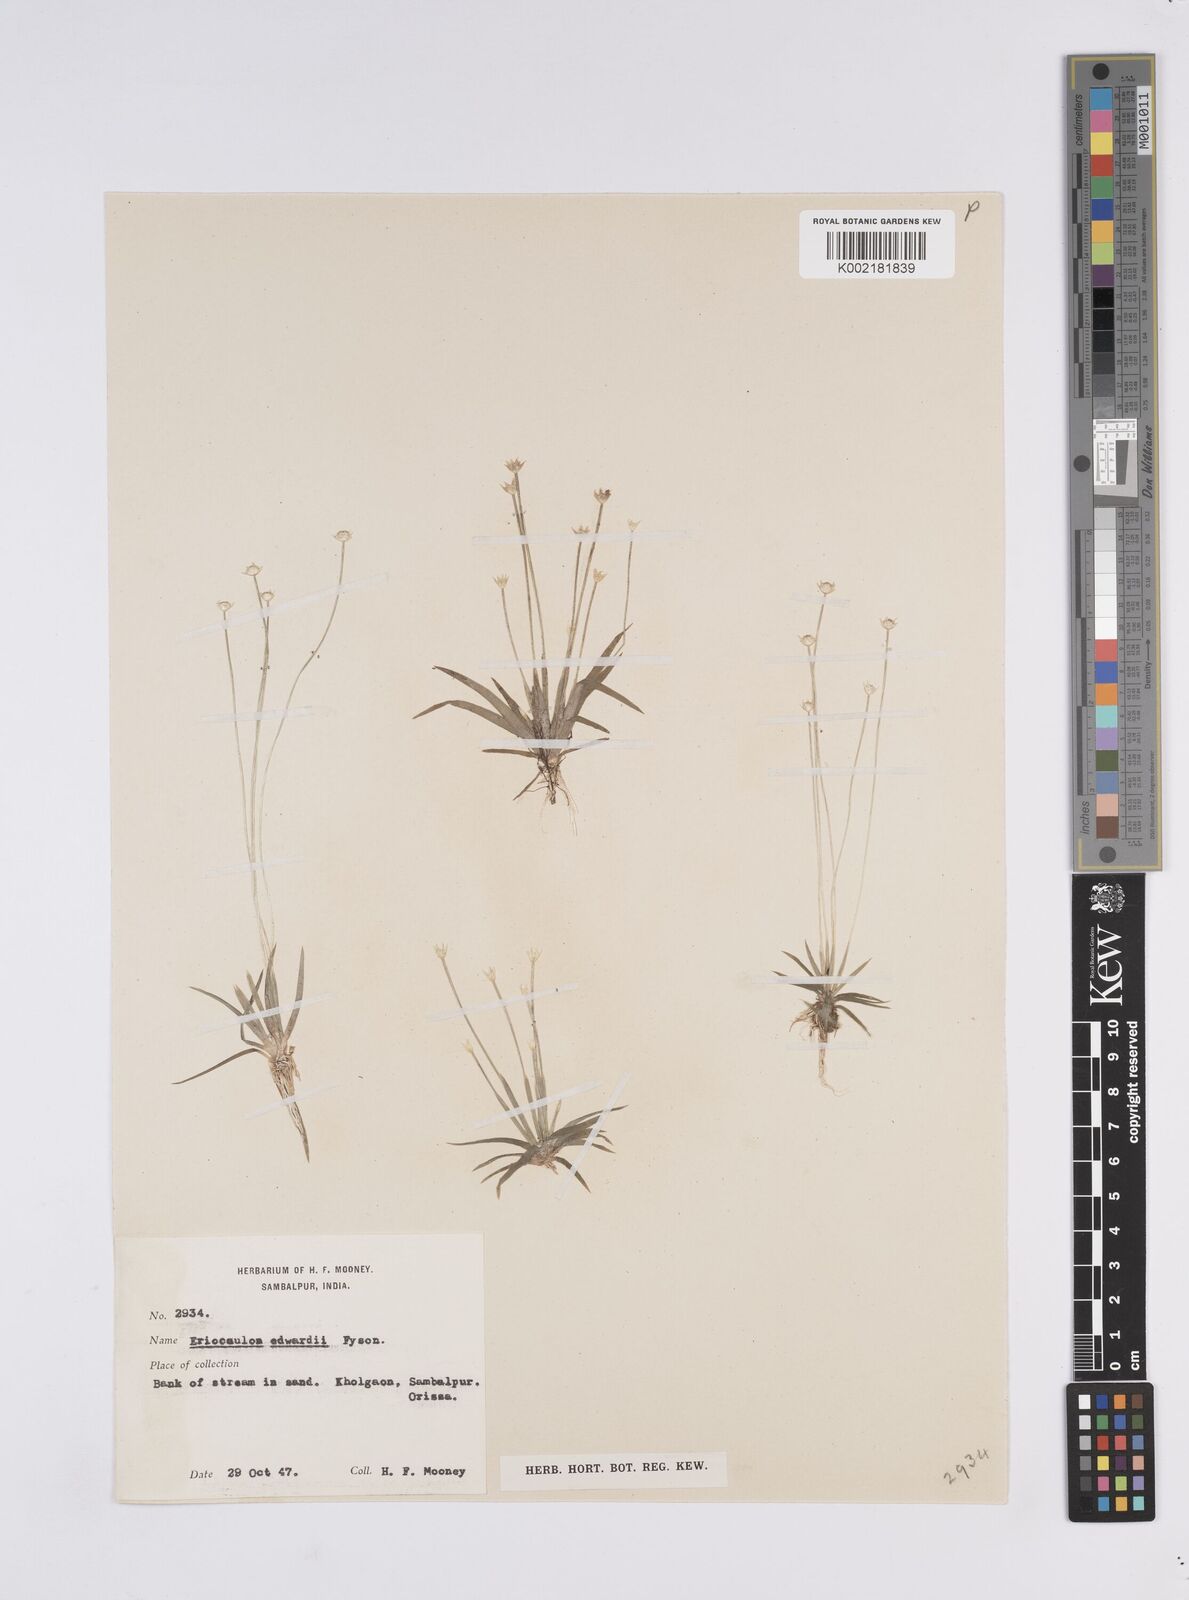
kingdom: Plantae
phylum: Tracheophyta
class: Liliopsida
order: Poales
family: Eriocaulaceae
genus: Eriocaulon
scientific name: Eriocaulon edwardii
